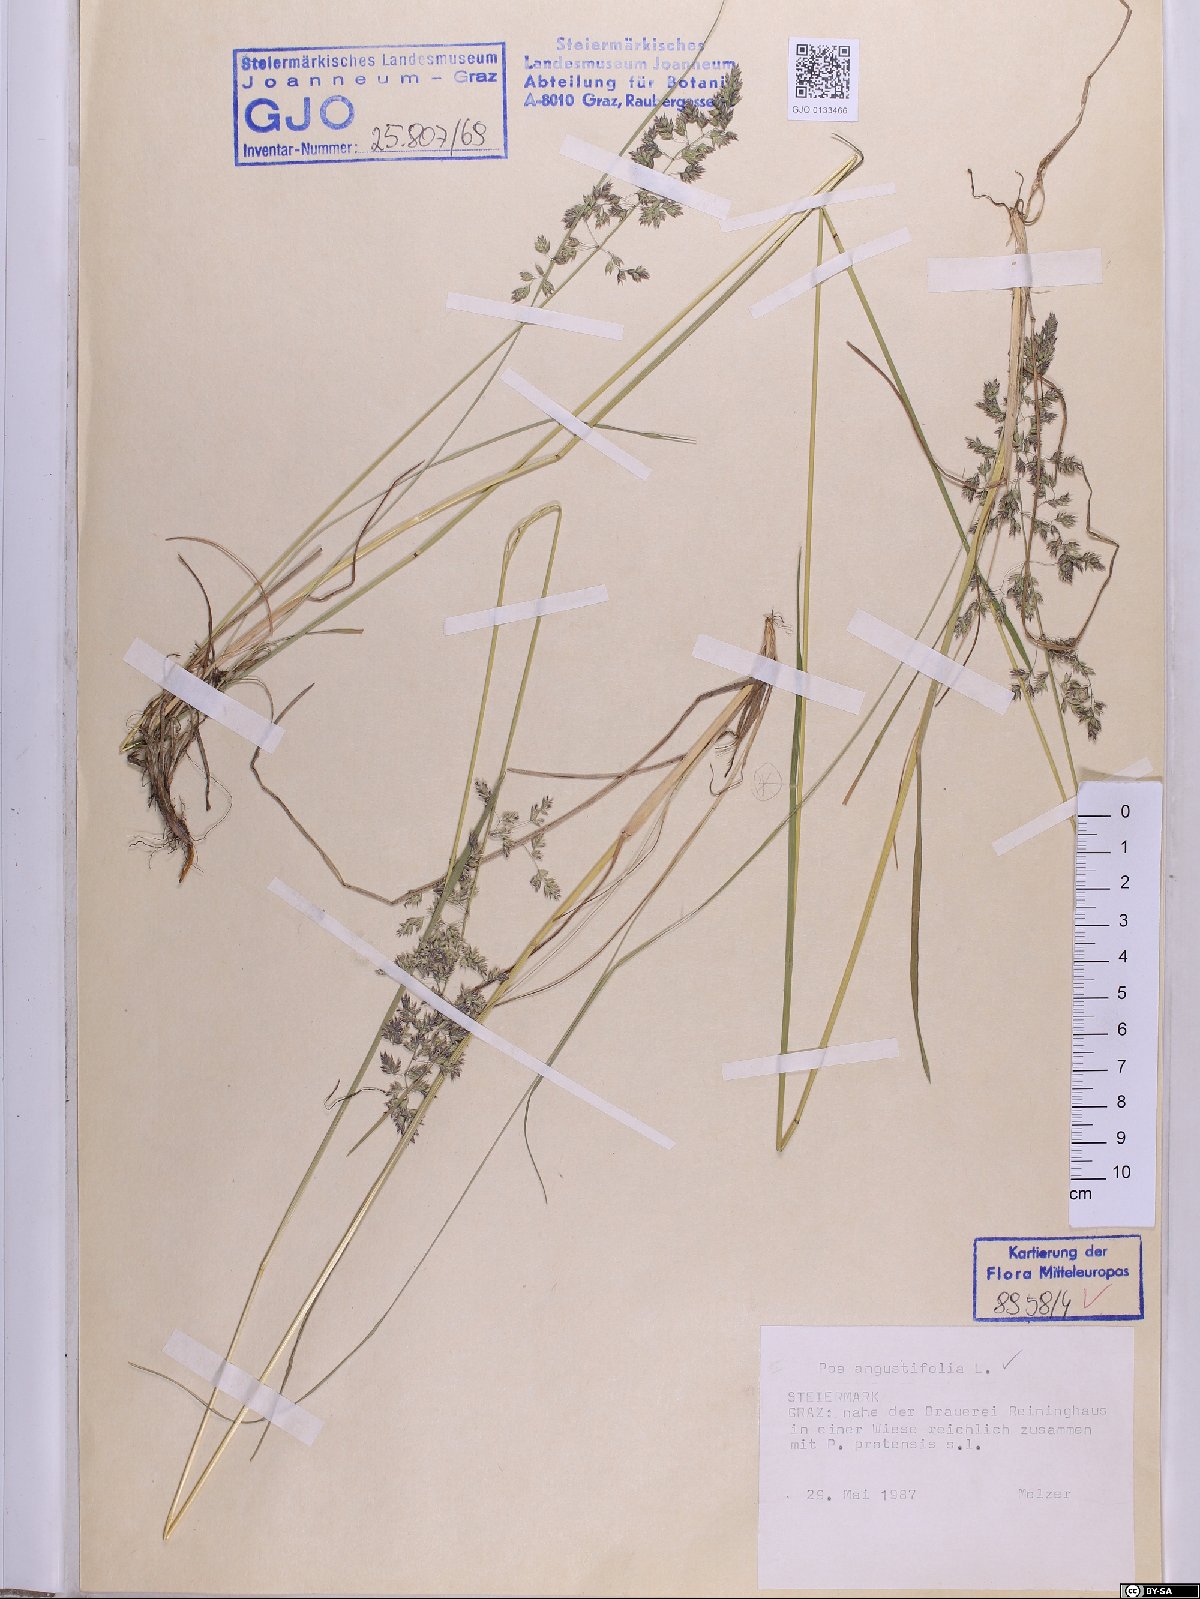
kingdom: Plantae
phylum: Tracheophyta
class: Liliopsida
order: Poales
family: Poaceae
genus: Poa
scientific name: Poa angustifolia
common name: Narrow-leaved meadow-grass
